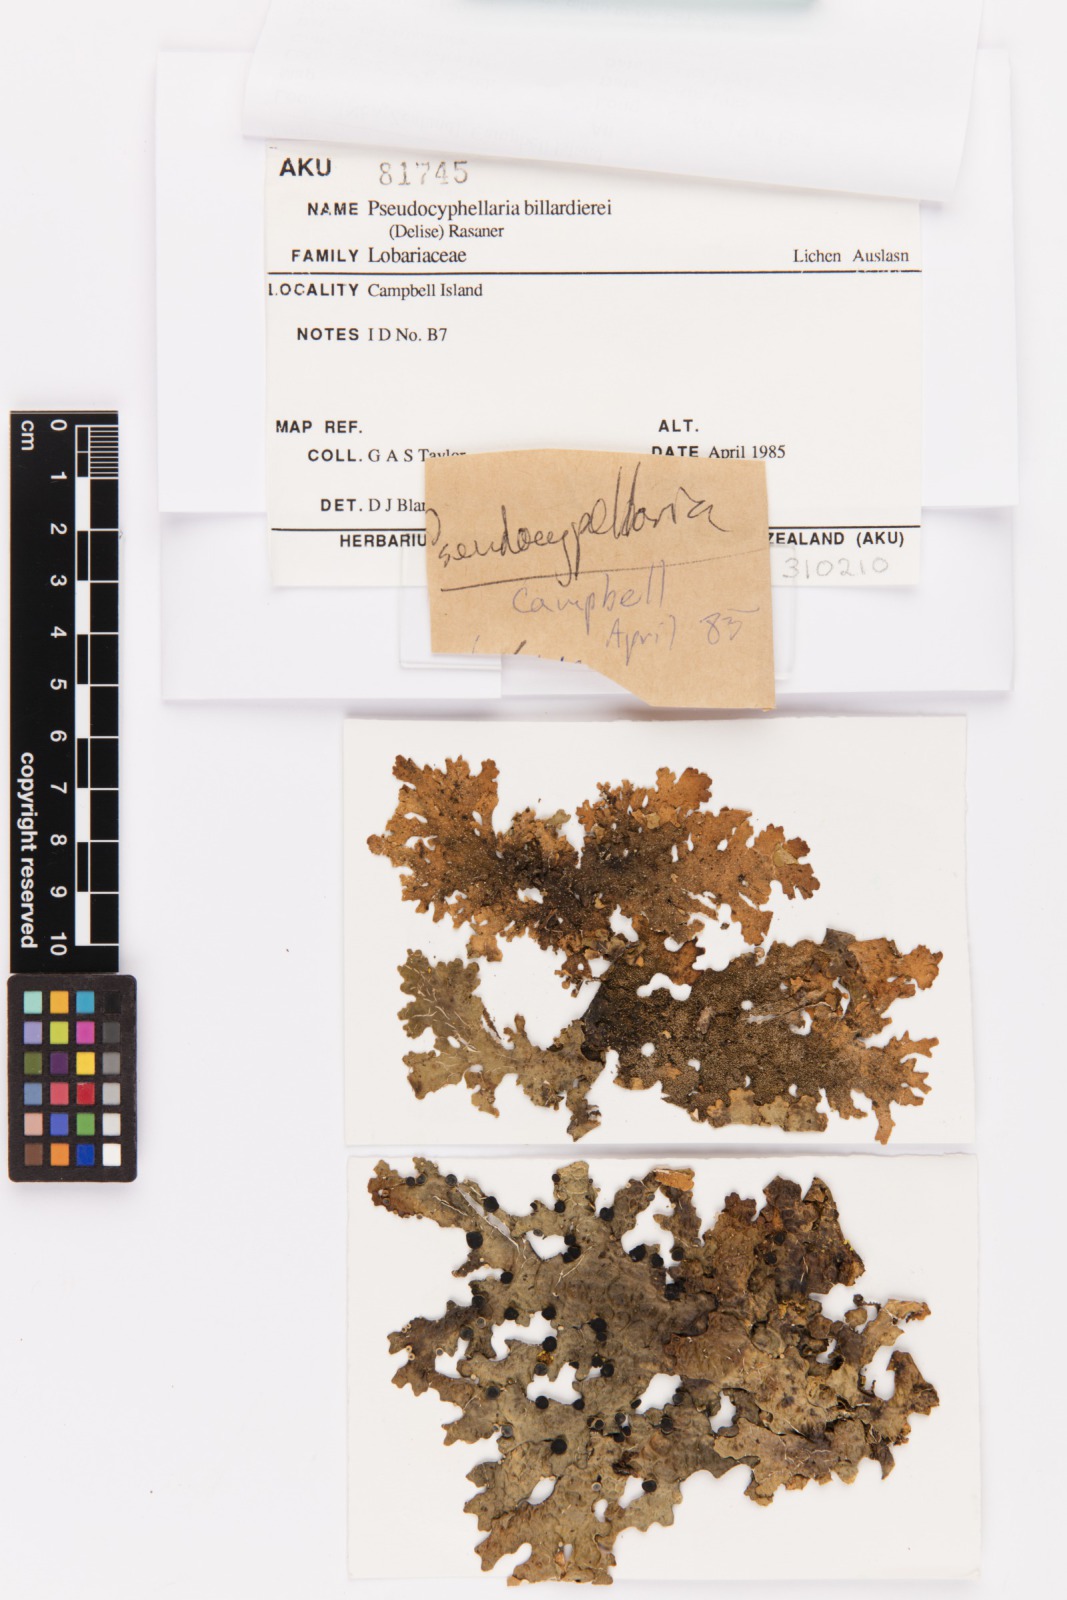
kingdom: Fungi
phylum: Ascomycota
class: Lecanoromycetes
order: Peltigerales
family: Lobariaceae
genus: Pseudocyphellaria
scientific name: Pseudocyphellaria billardierei
